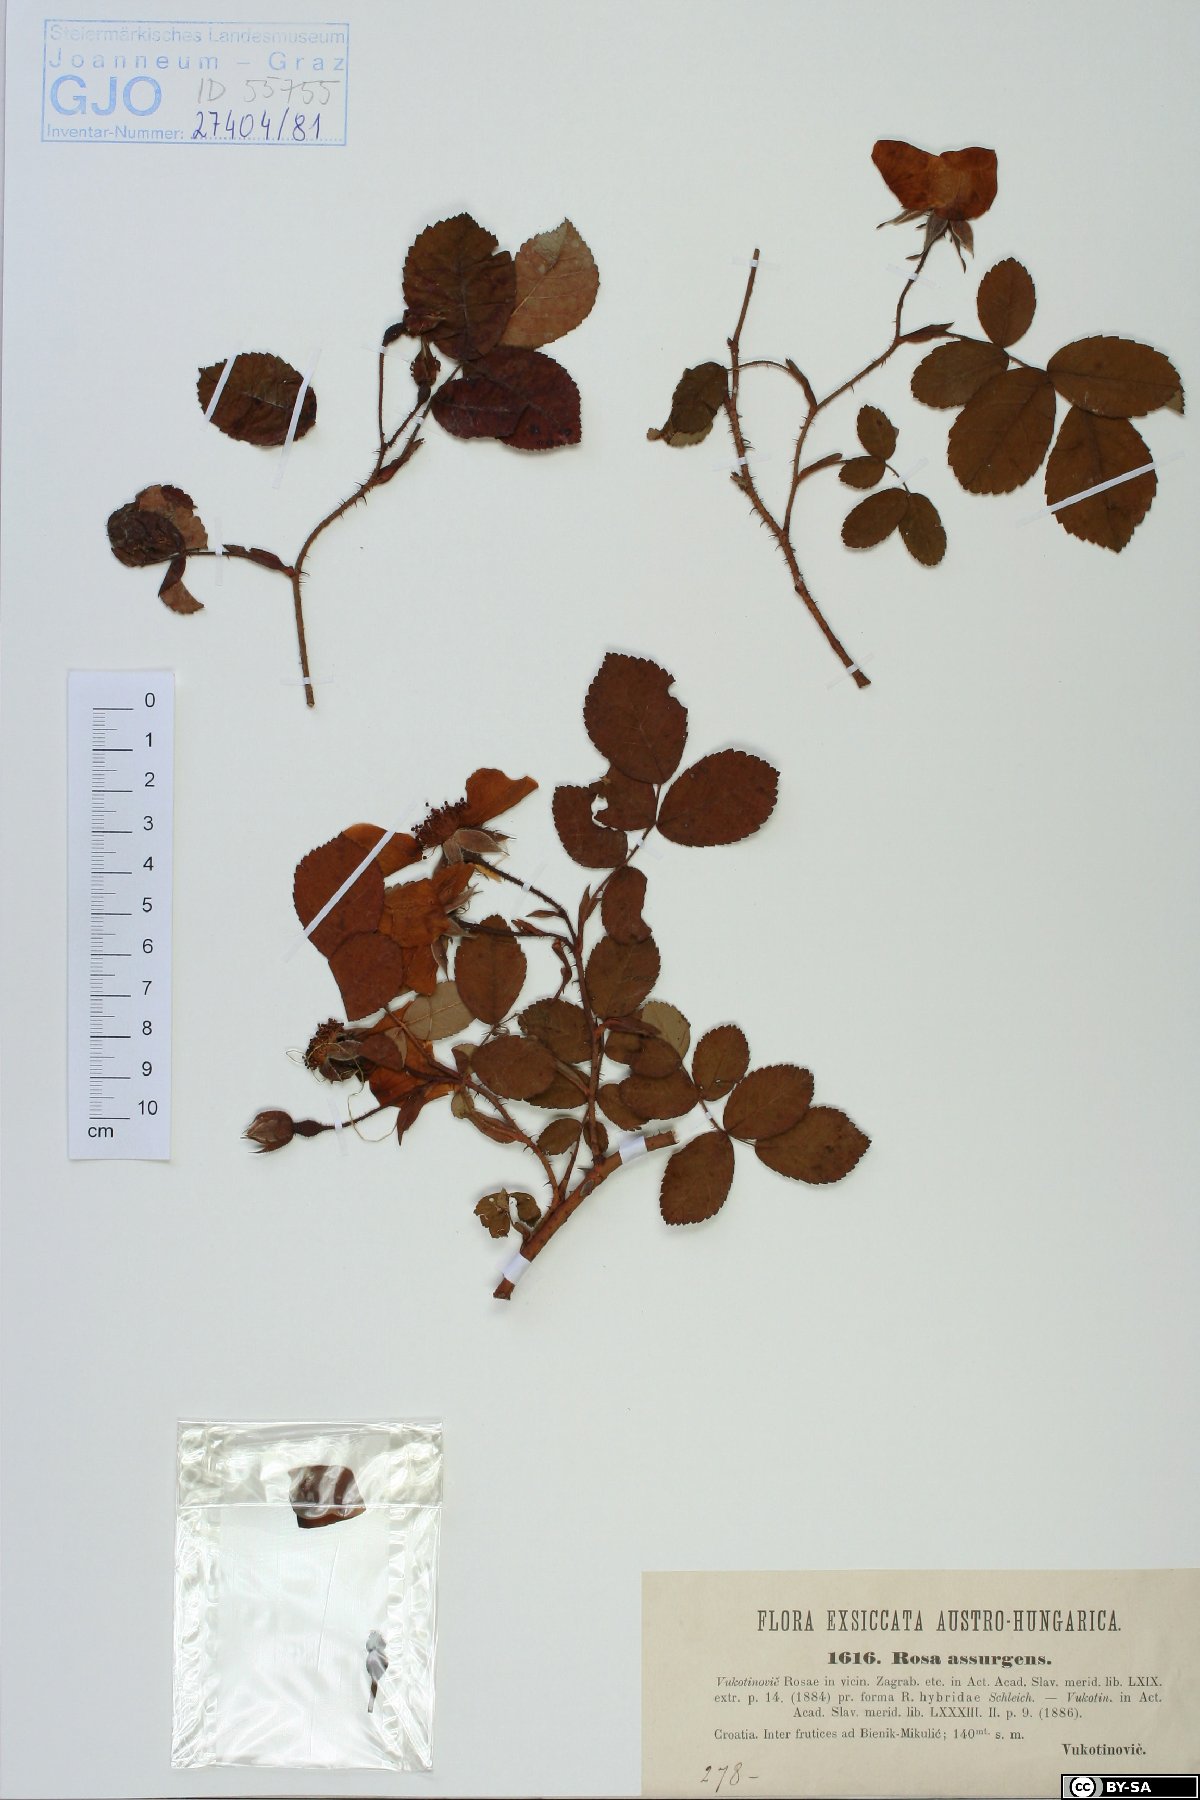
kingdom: Plantae
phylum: Tracheophyta
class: Magnoliopsida
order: Rosales
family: Rosaceae
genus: Rosa
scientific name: Rosa assurgens
